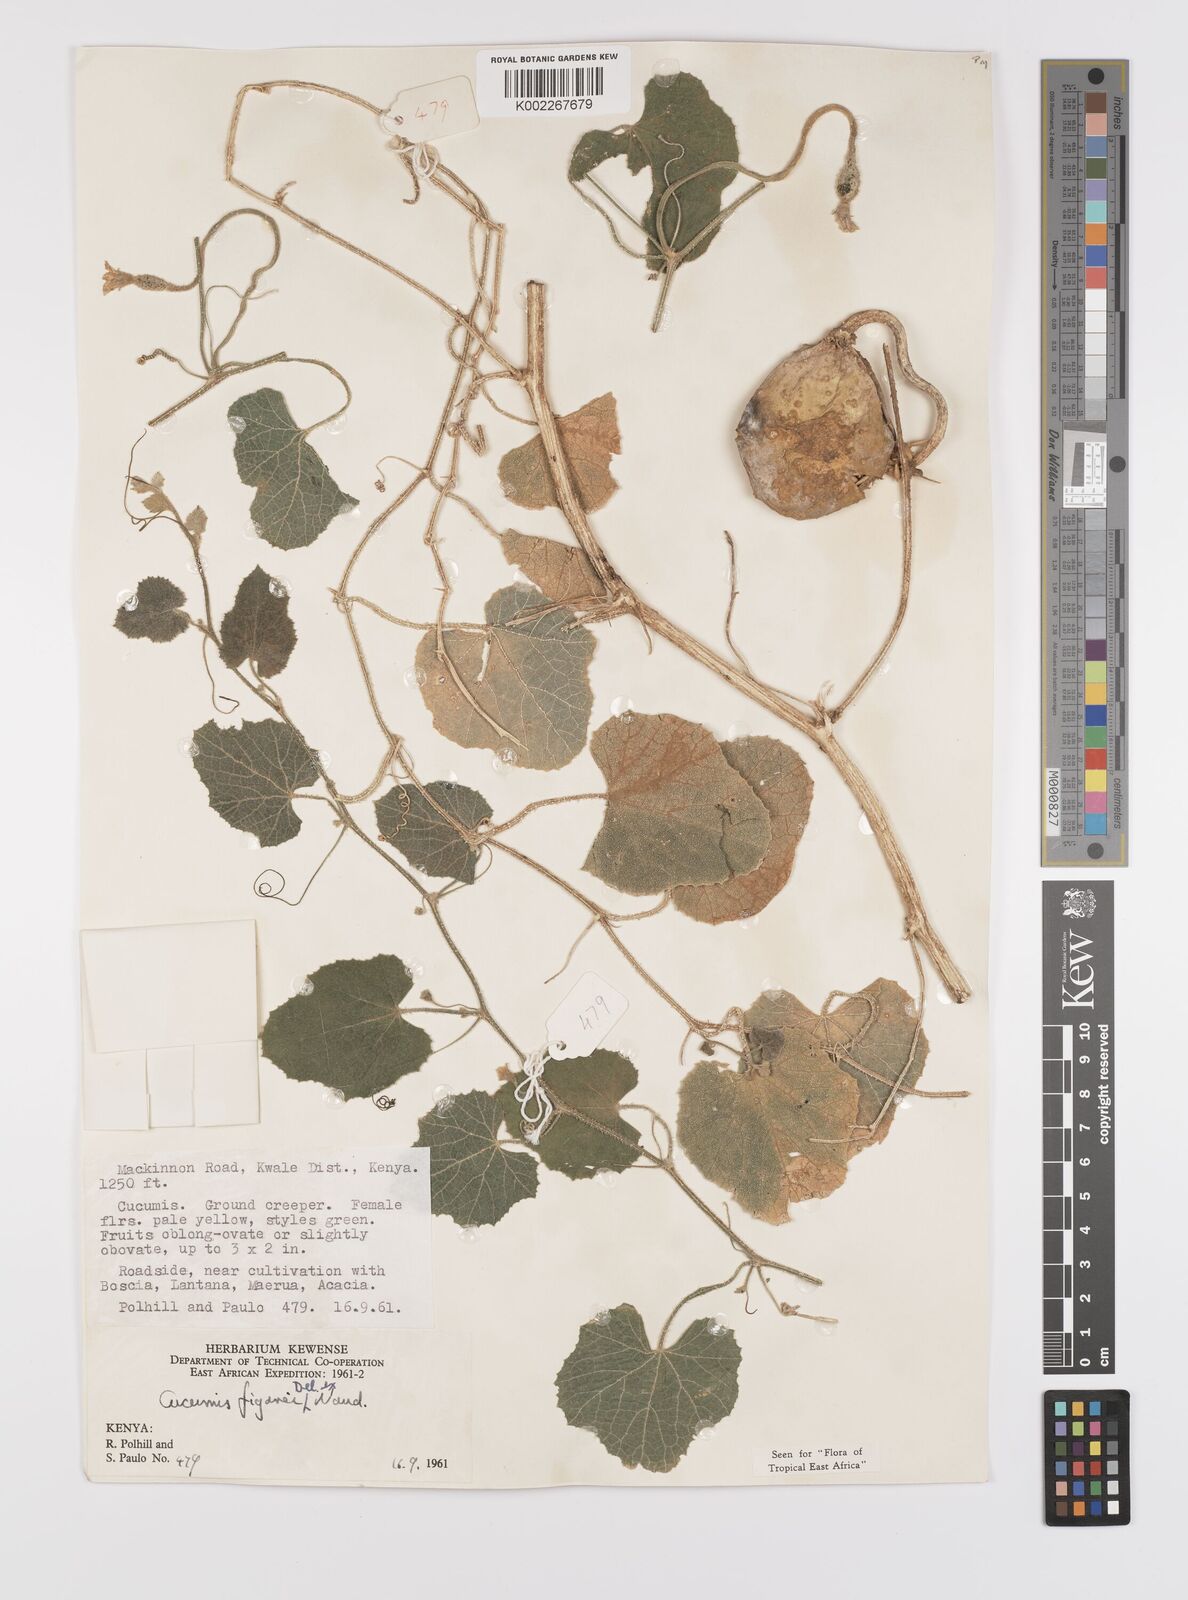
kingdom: Plantae
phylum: Tracheophyta
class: Magnoliopsida
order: Cucurbitales
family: Cucurbitaceae
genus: Cucumis
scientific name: Cucumis
